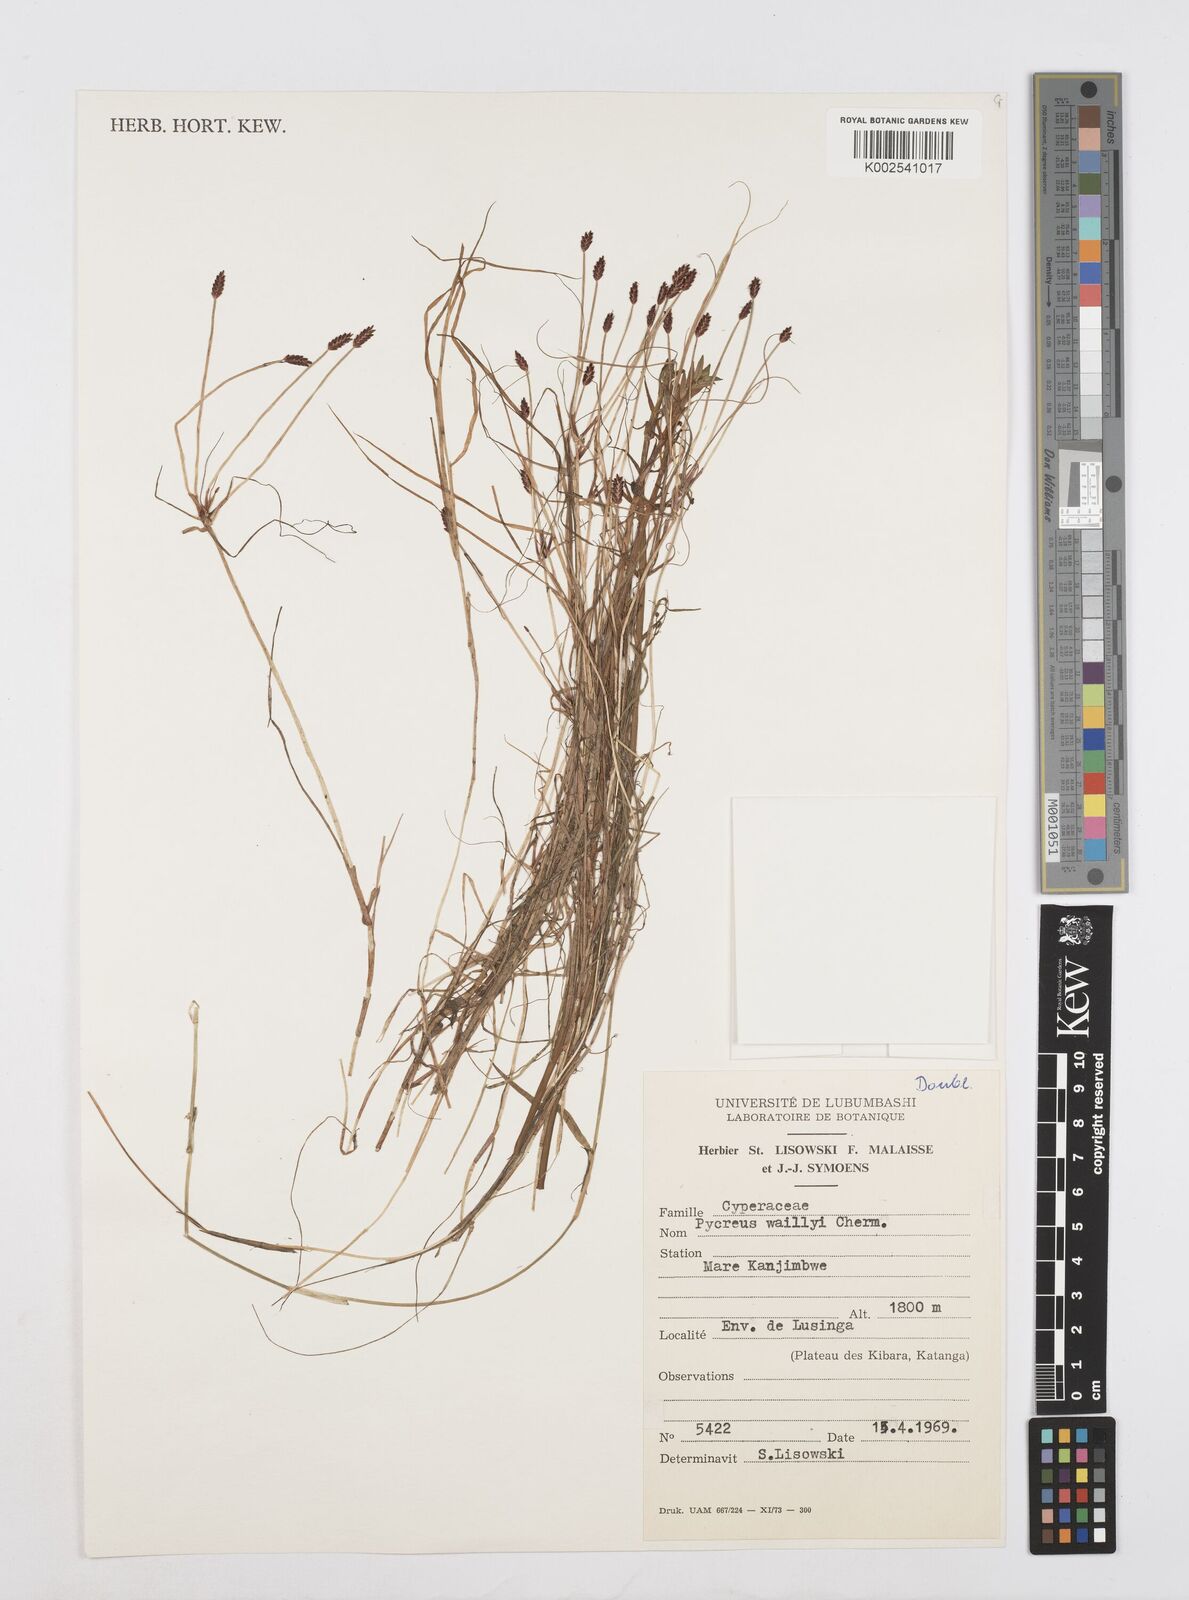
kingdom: Plantae
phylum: Tracheophyta
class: Liliopsida
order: Poales
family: Cyperaceae
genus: Cyperus
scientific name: Cyperus waillyi
